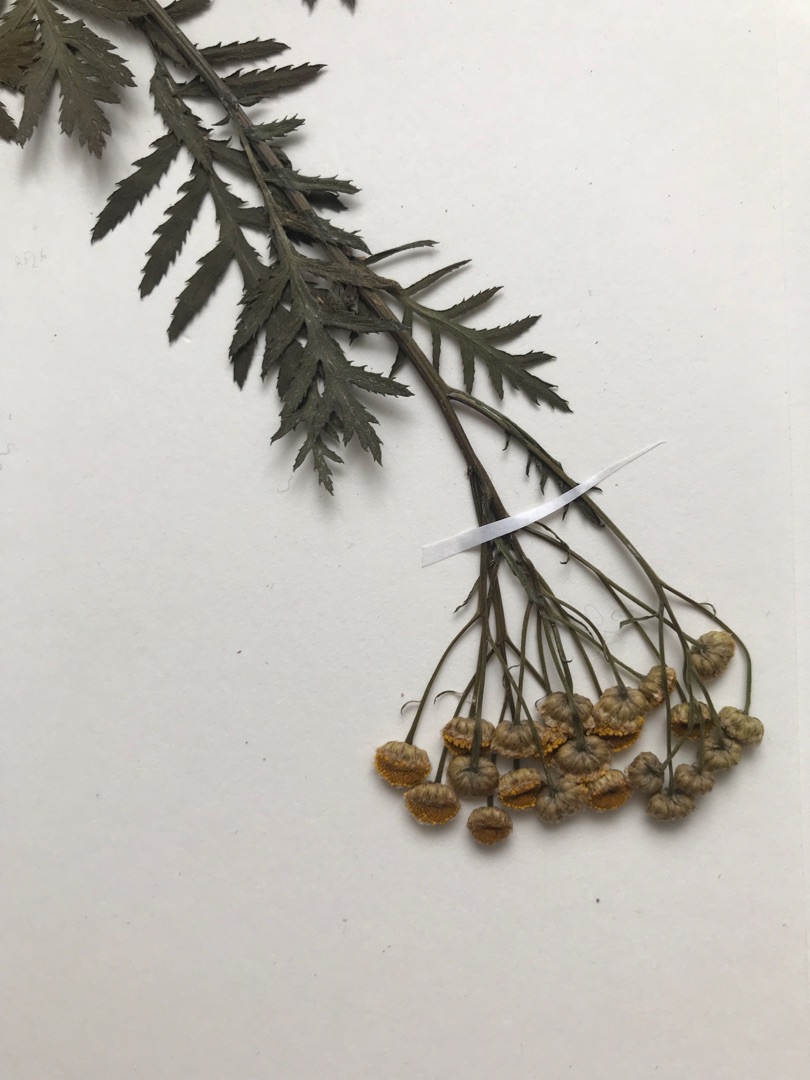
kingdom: Plantae
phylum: Tracheophyta
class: Magnoliopsida
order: Asterales
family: Asteraceae
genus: Tanacetum
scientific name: Tanacetum vulgare
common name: Rejnfan
